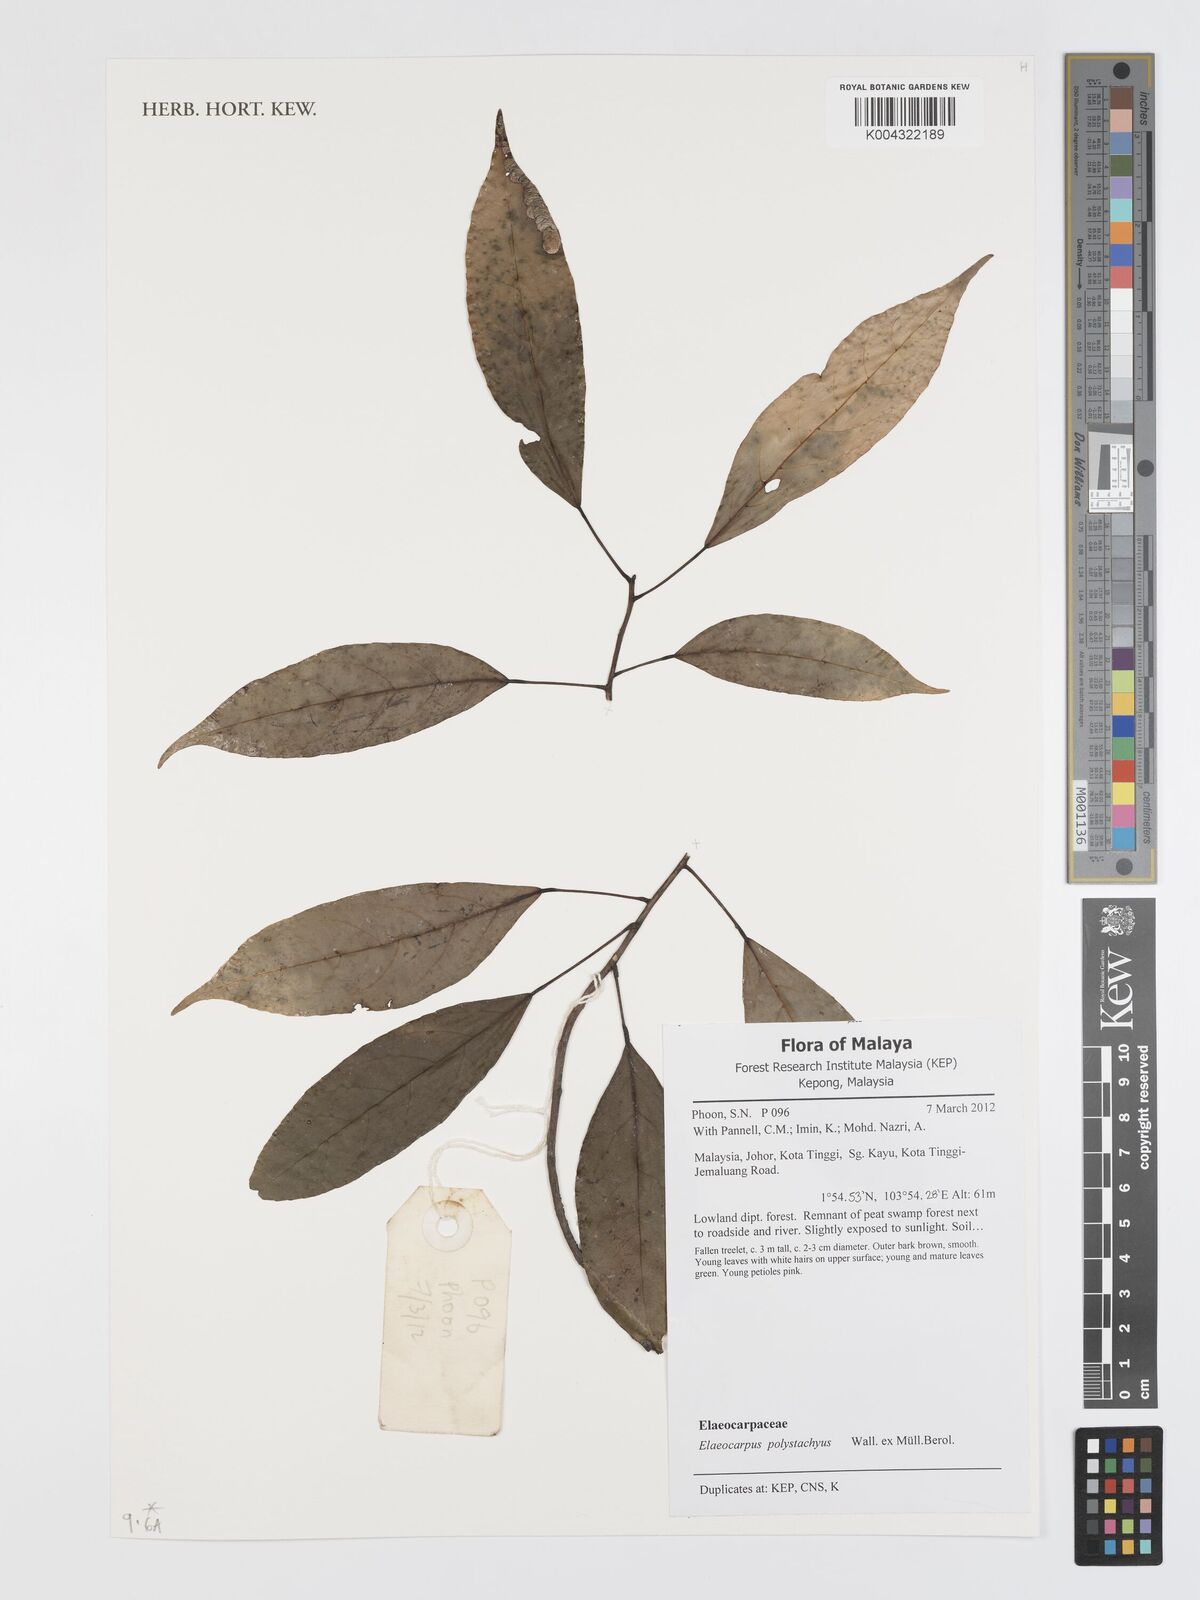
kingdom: Plantae
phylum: Tracheophyta
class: Magnoliopsida
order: Oxalidales
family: Elaeocarpaceae
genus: Elaeocarpus
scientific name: Elaeocarpus polystachyus
